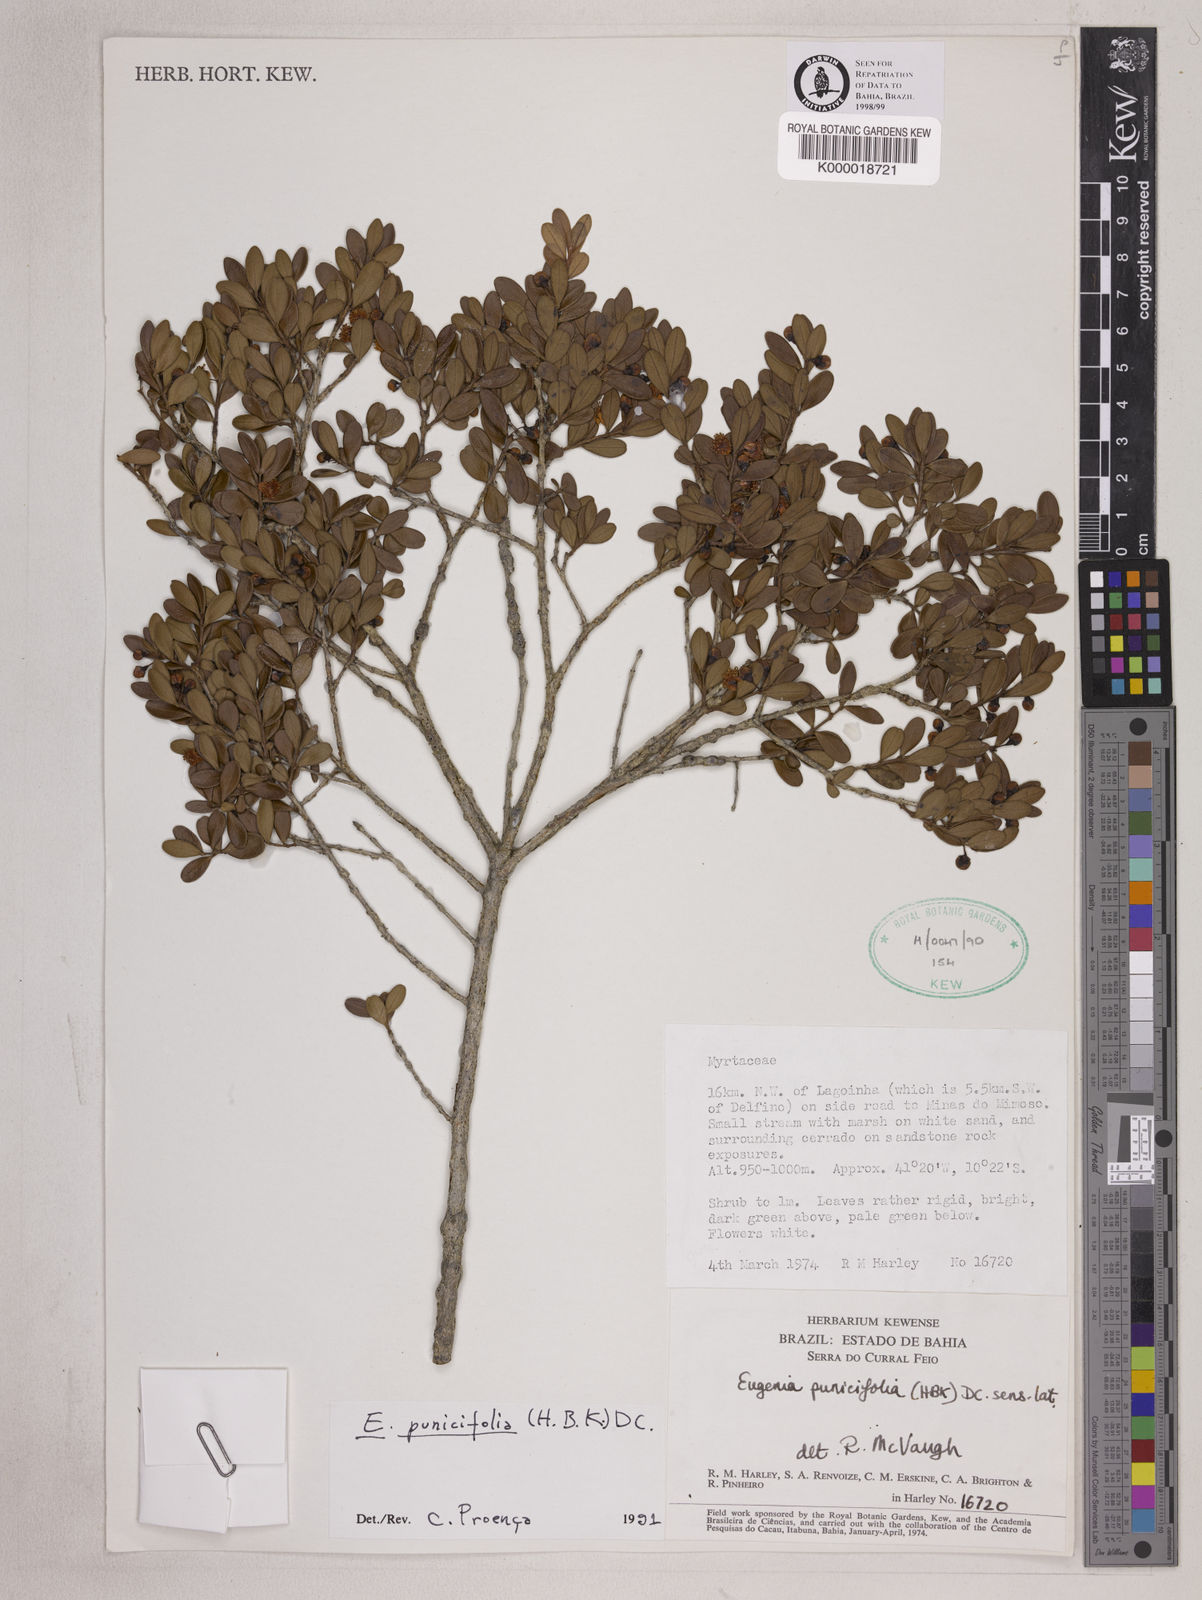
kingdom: Plantae
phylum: Tracheophyta
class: Magnoliopsida
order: Myrtales
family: Myrtaceae
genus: Eugenia
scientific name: Eugenia punicifolia
